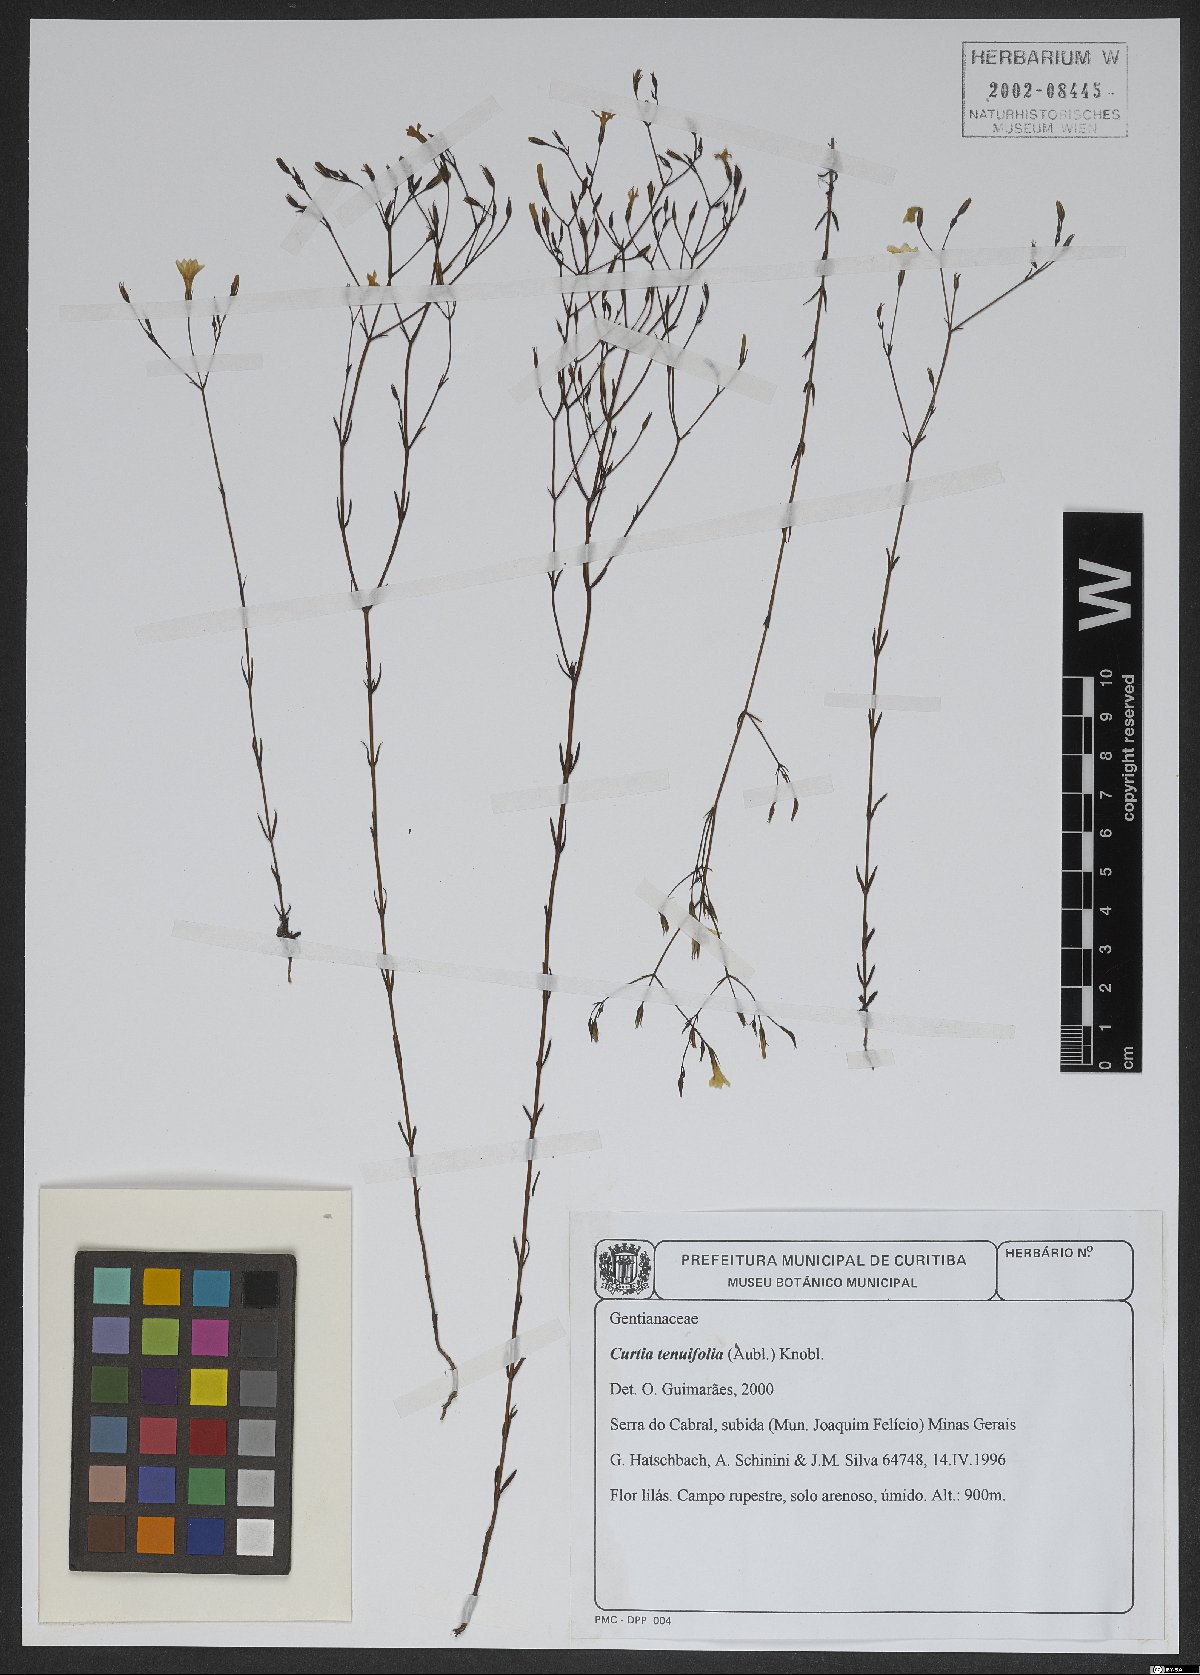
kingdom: Plantae
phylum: Tracheophyta
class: Magnoliopsida
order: Gentianales
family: Gentianaceae
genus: Curtia
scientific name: Curtia tenuifolia
